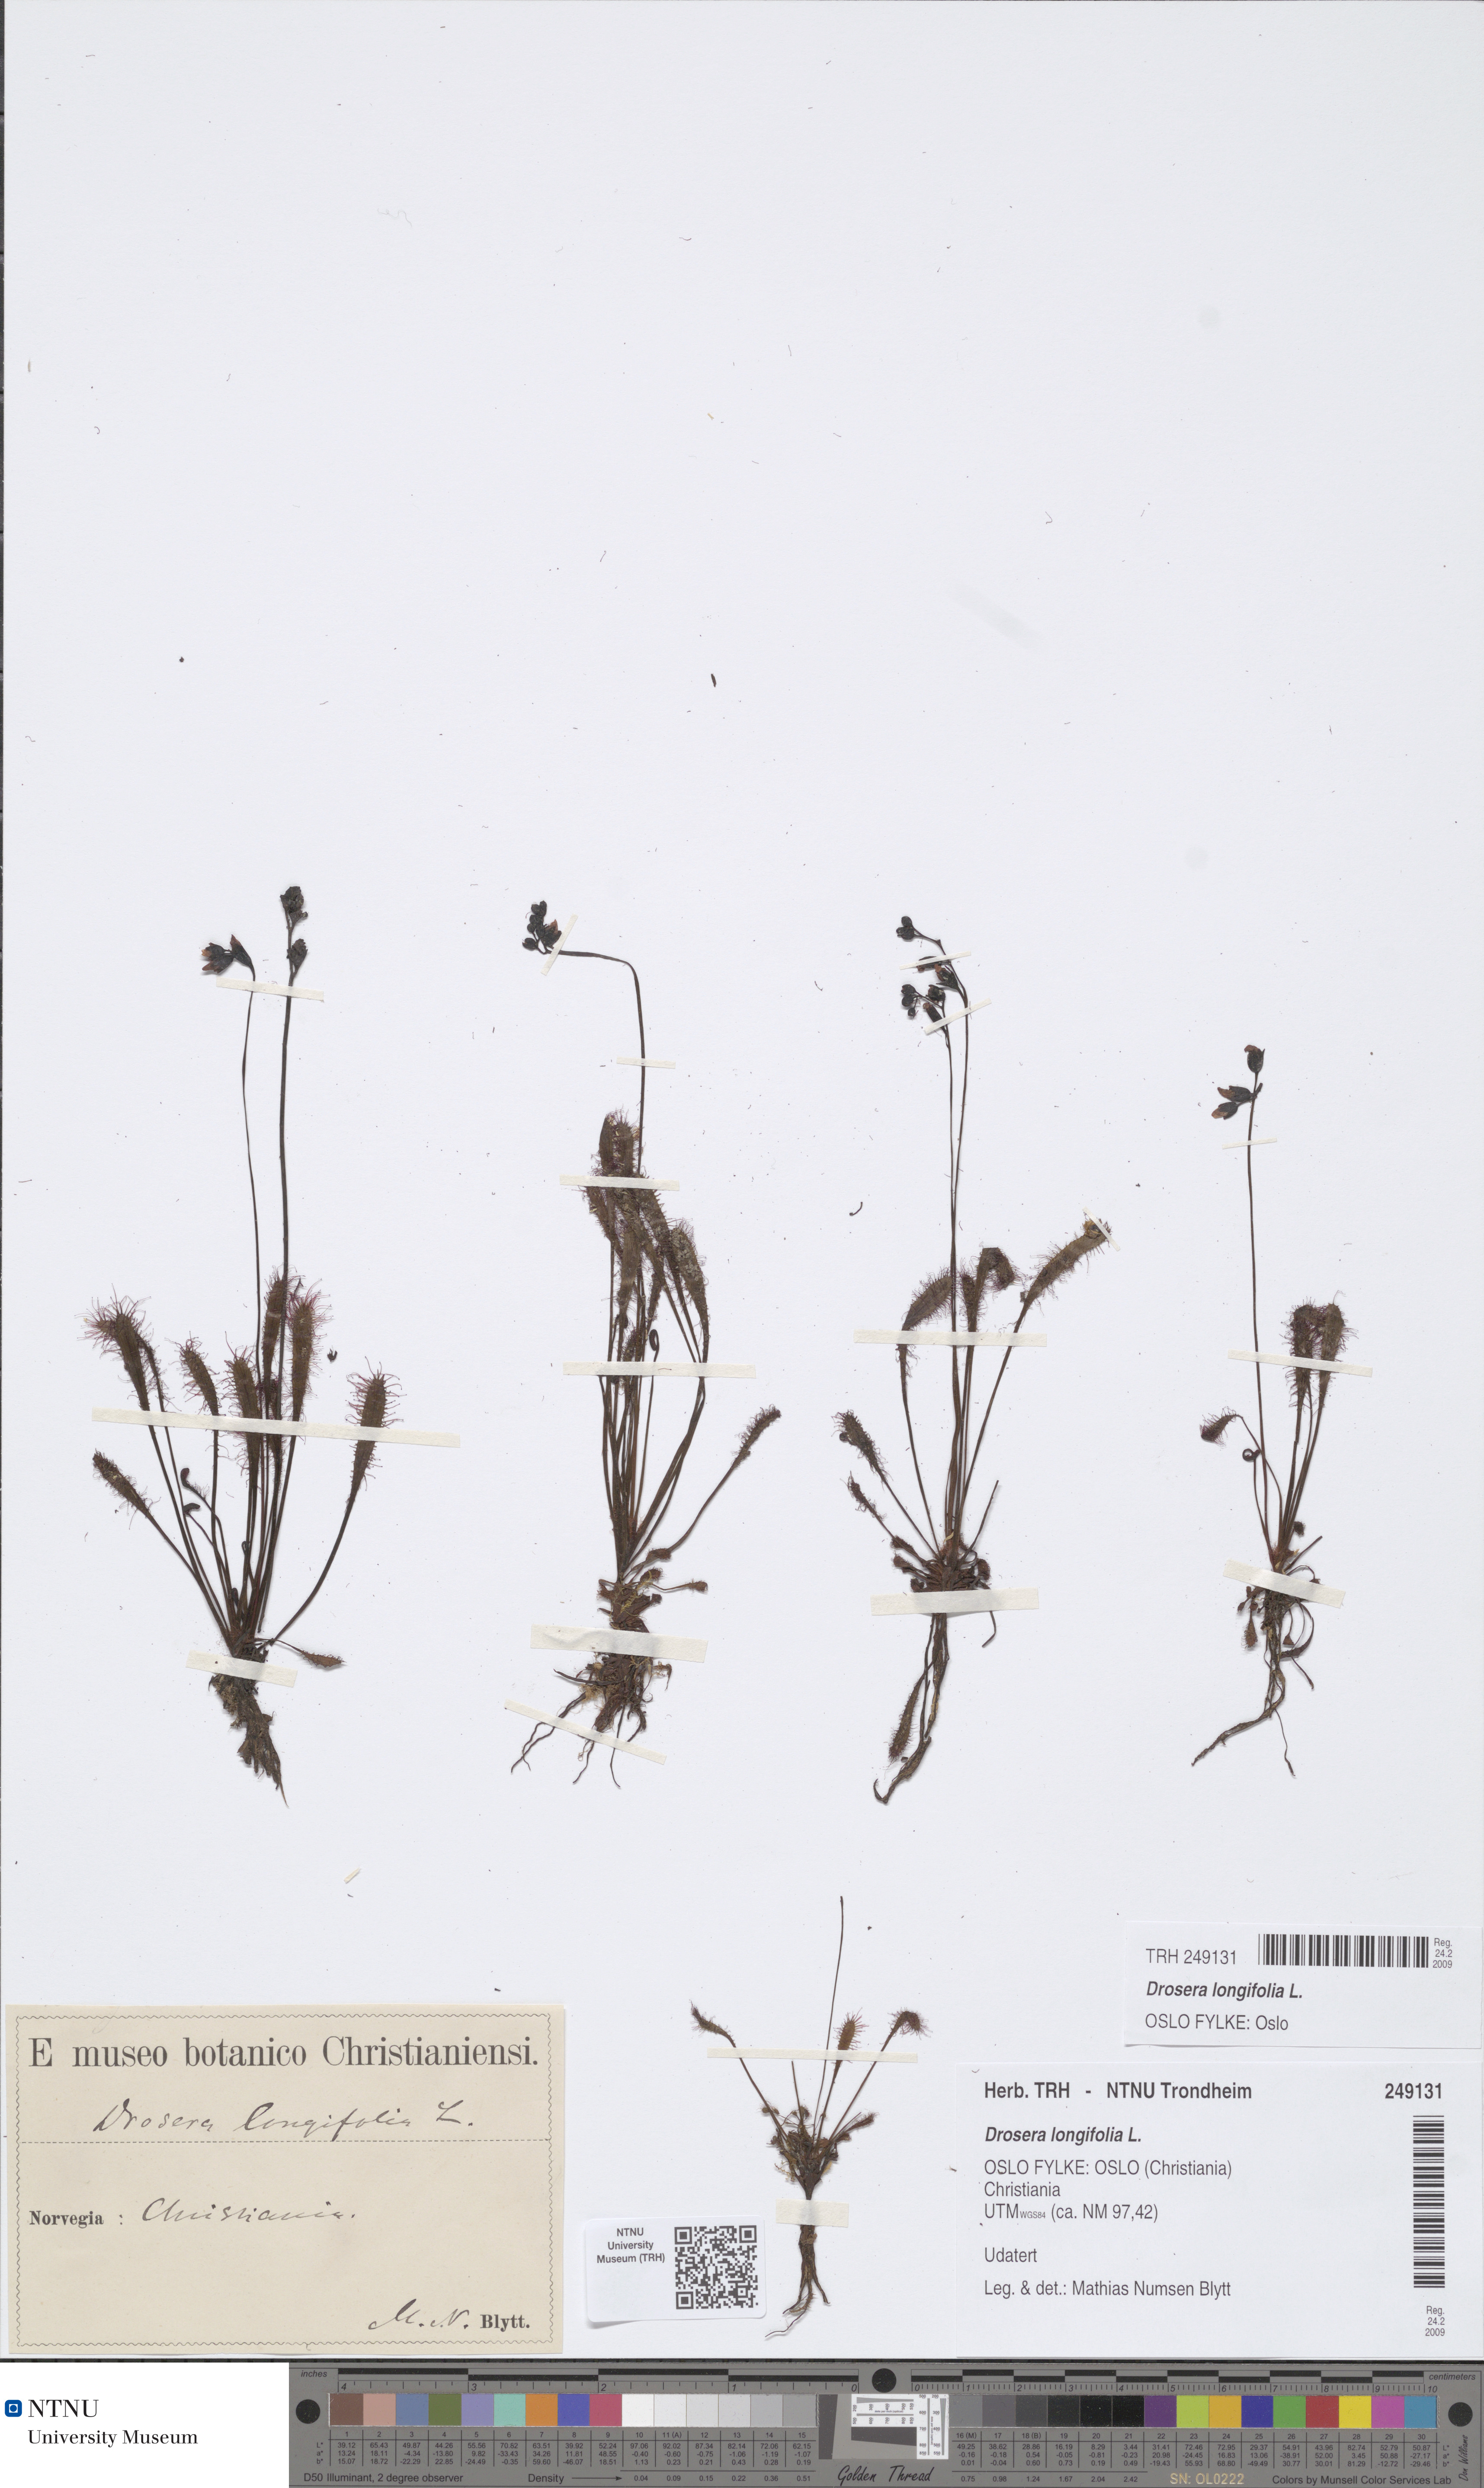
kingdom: Plantae
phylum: Tracheophyta
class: Magnoliopsida
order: Caryophyllales
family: Droseraceae
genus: Drosera
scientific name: Drosera anglica
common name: Great sundew
